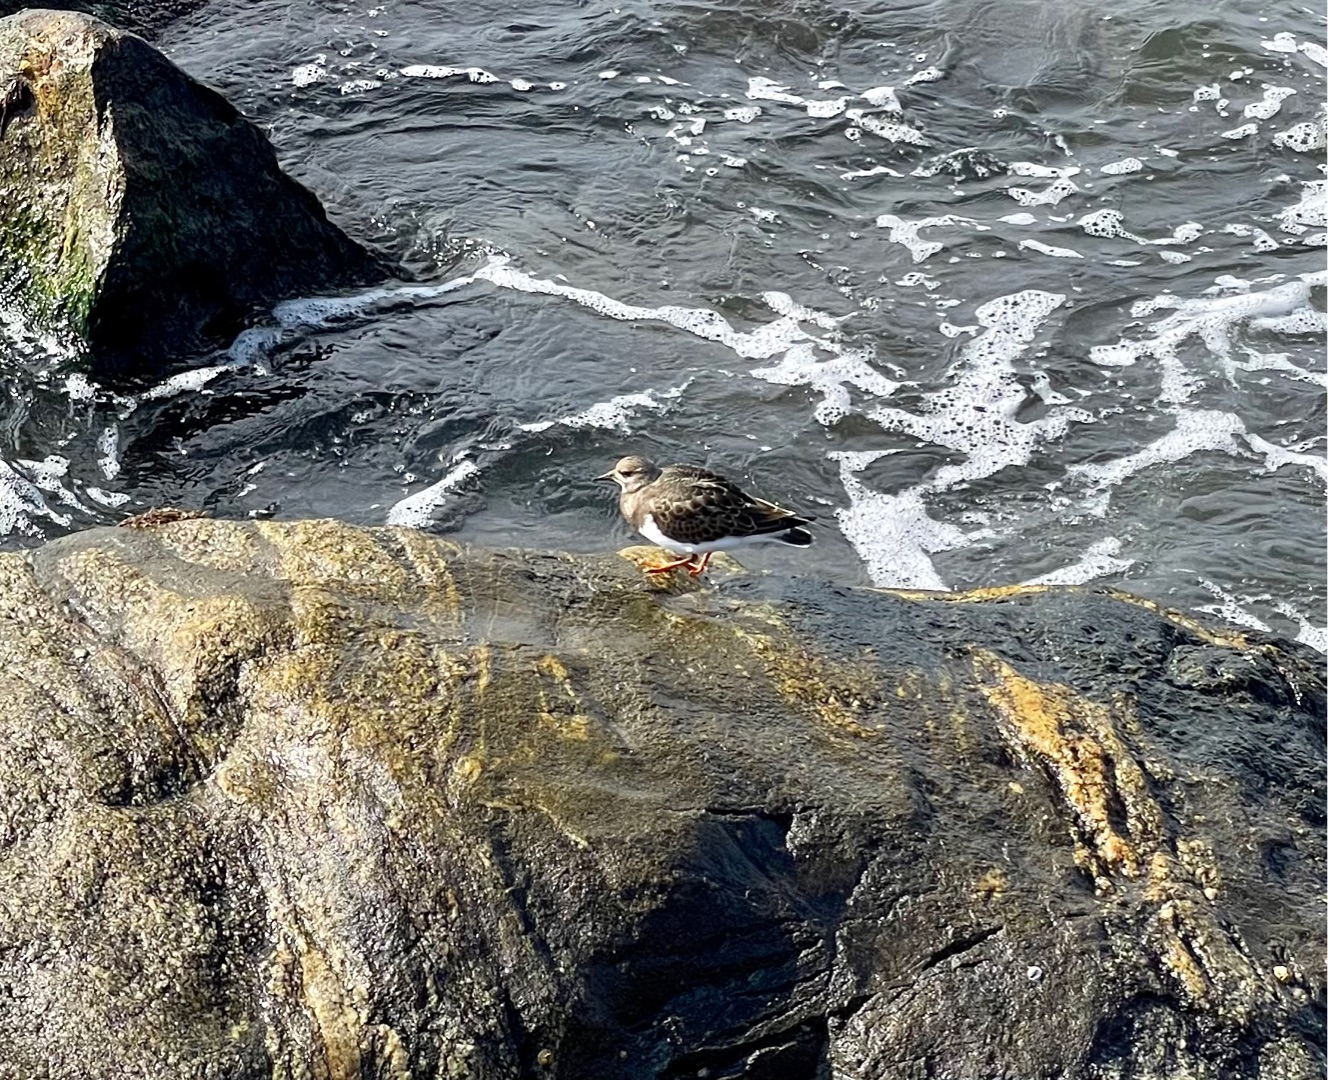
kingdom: Animalia
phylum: Chordata
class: Aves
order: Charadriiformes
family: Scolopacidae
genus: Arenaria
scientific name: Arenaria interpres
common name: Stenvender
